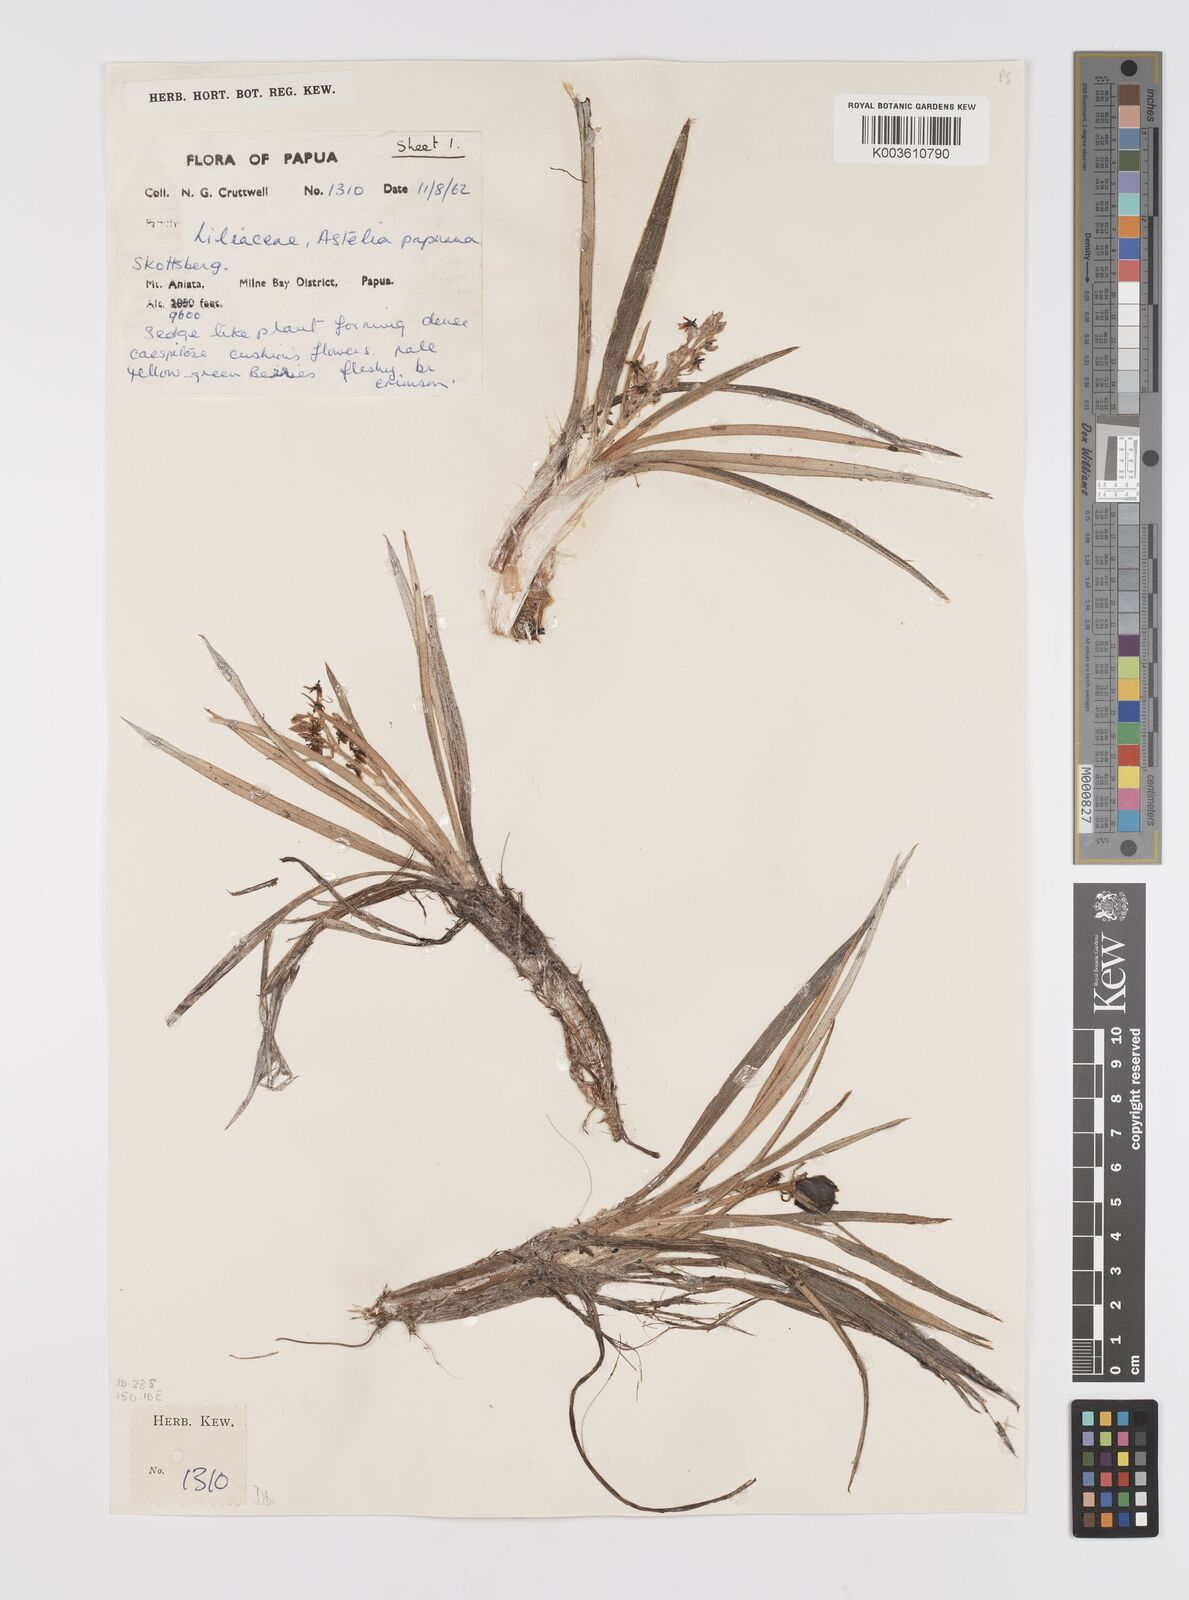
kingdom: Plantae
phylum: Tracheophyta
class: Liliopsida
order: Asparagales
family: Asteliaceae
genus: Astelia
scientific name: Astelia alpina
